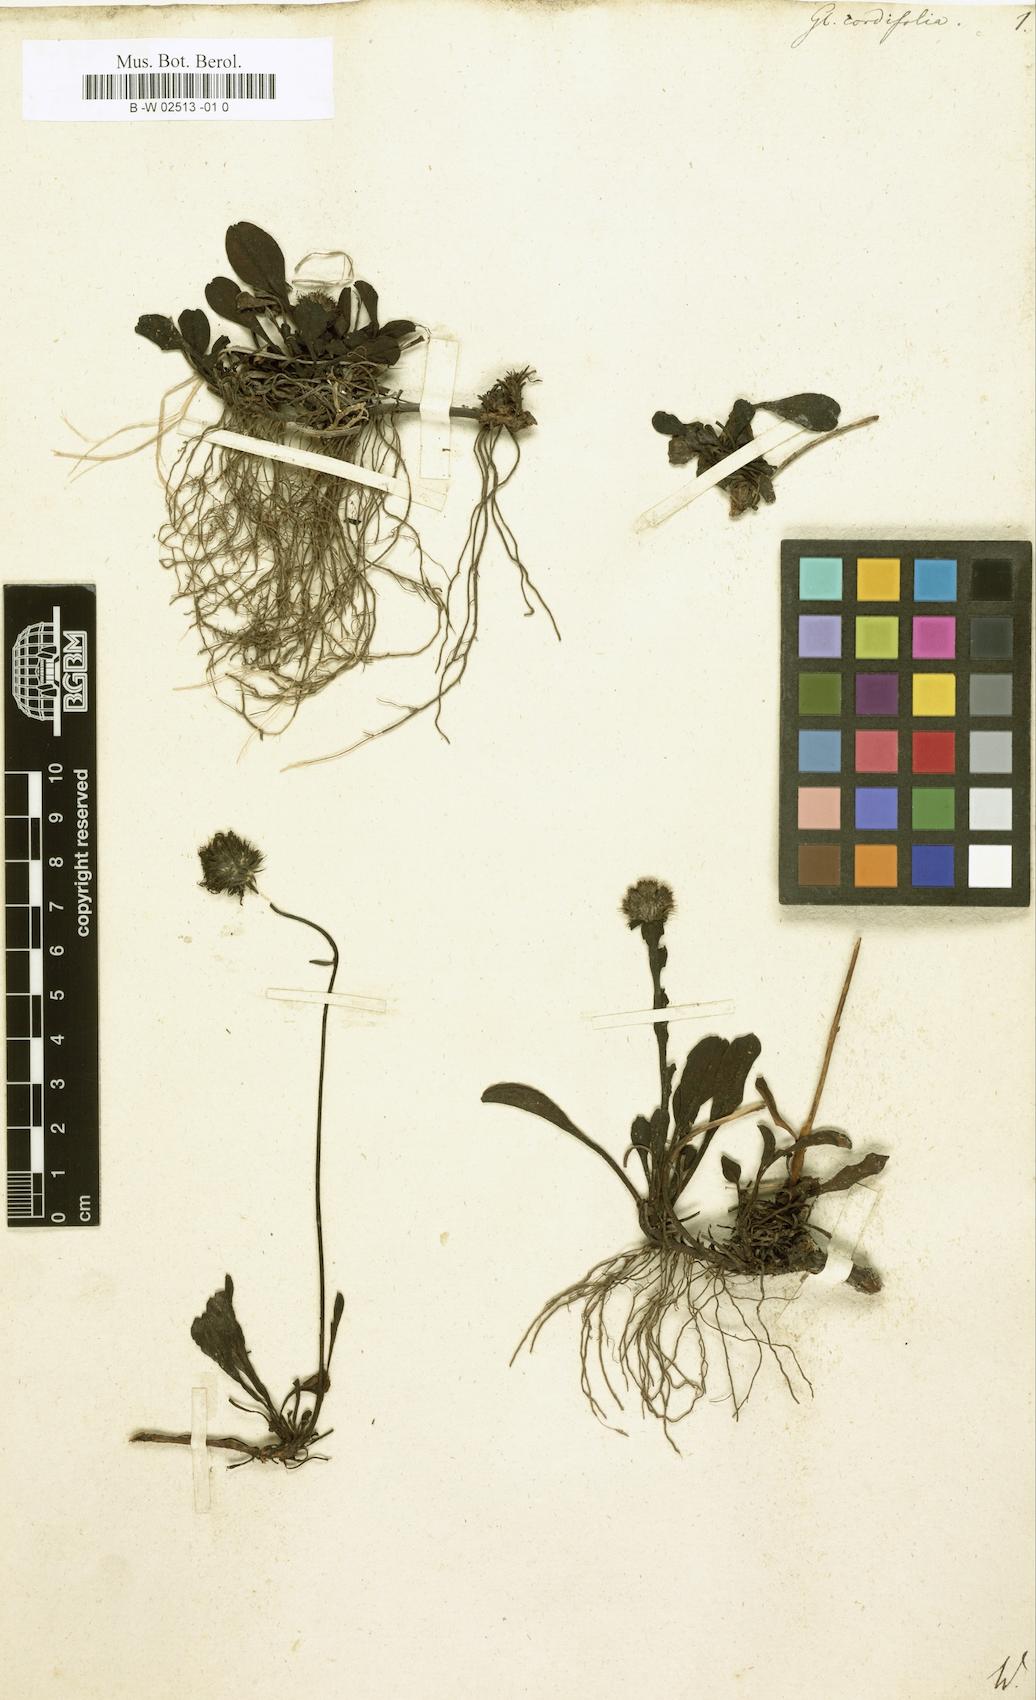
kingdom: Plantae
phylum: Tracheophyta
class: Magnoliopsida
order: Lamiales
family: Plantaginaceae
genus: Globularia
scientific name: Globularia cordifolia
